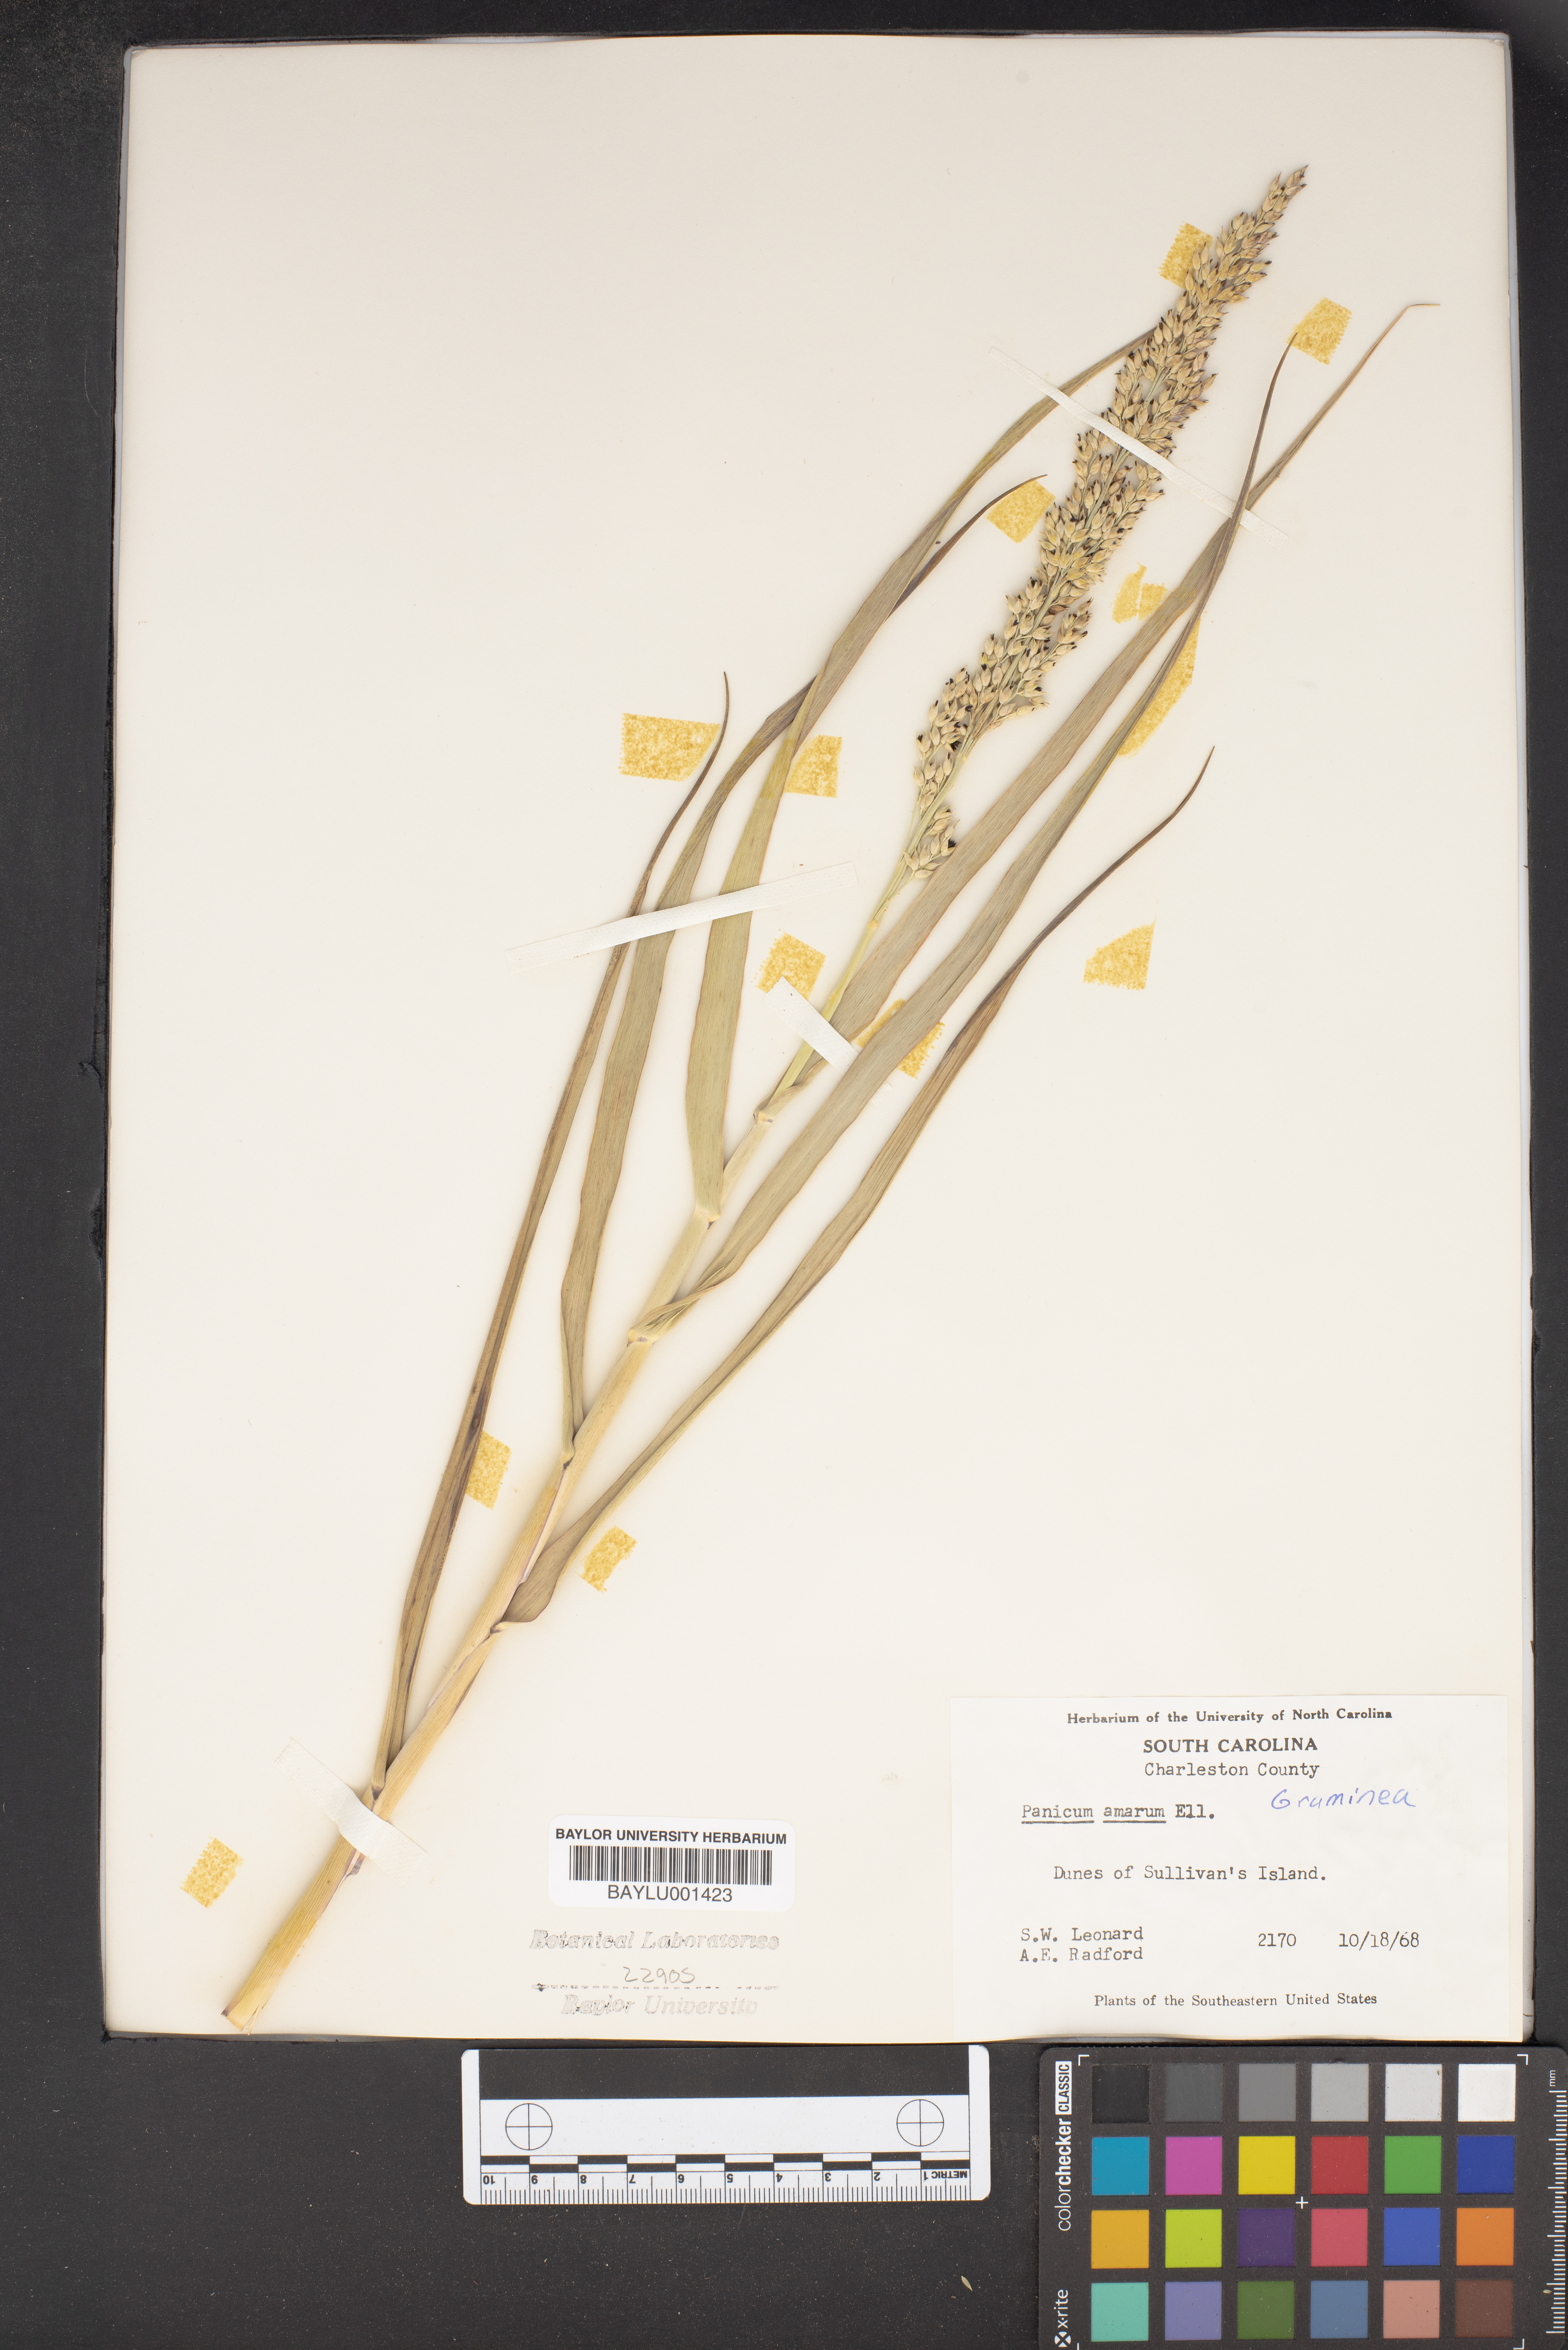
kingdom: Plantae
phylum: Tracheophyta
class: Liliopsida
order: Poales
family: Poaceae
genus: Panicum
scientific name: Panicum amarum
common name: Bitter panicum
